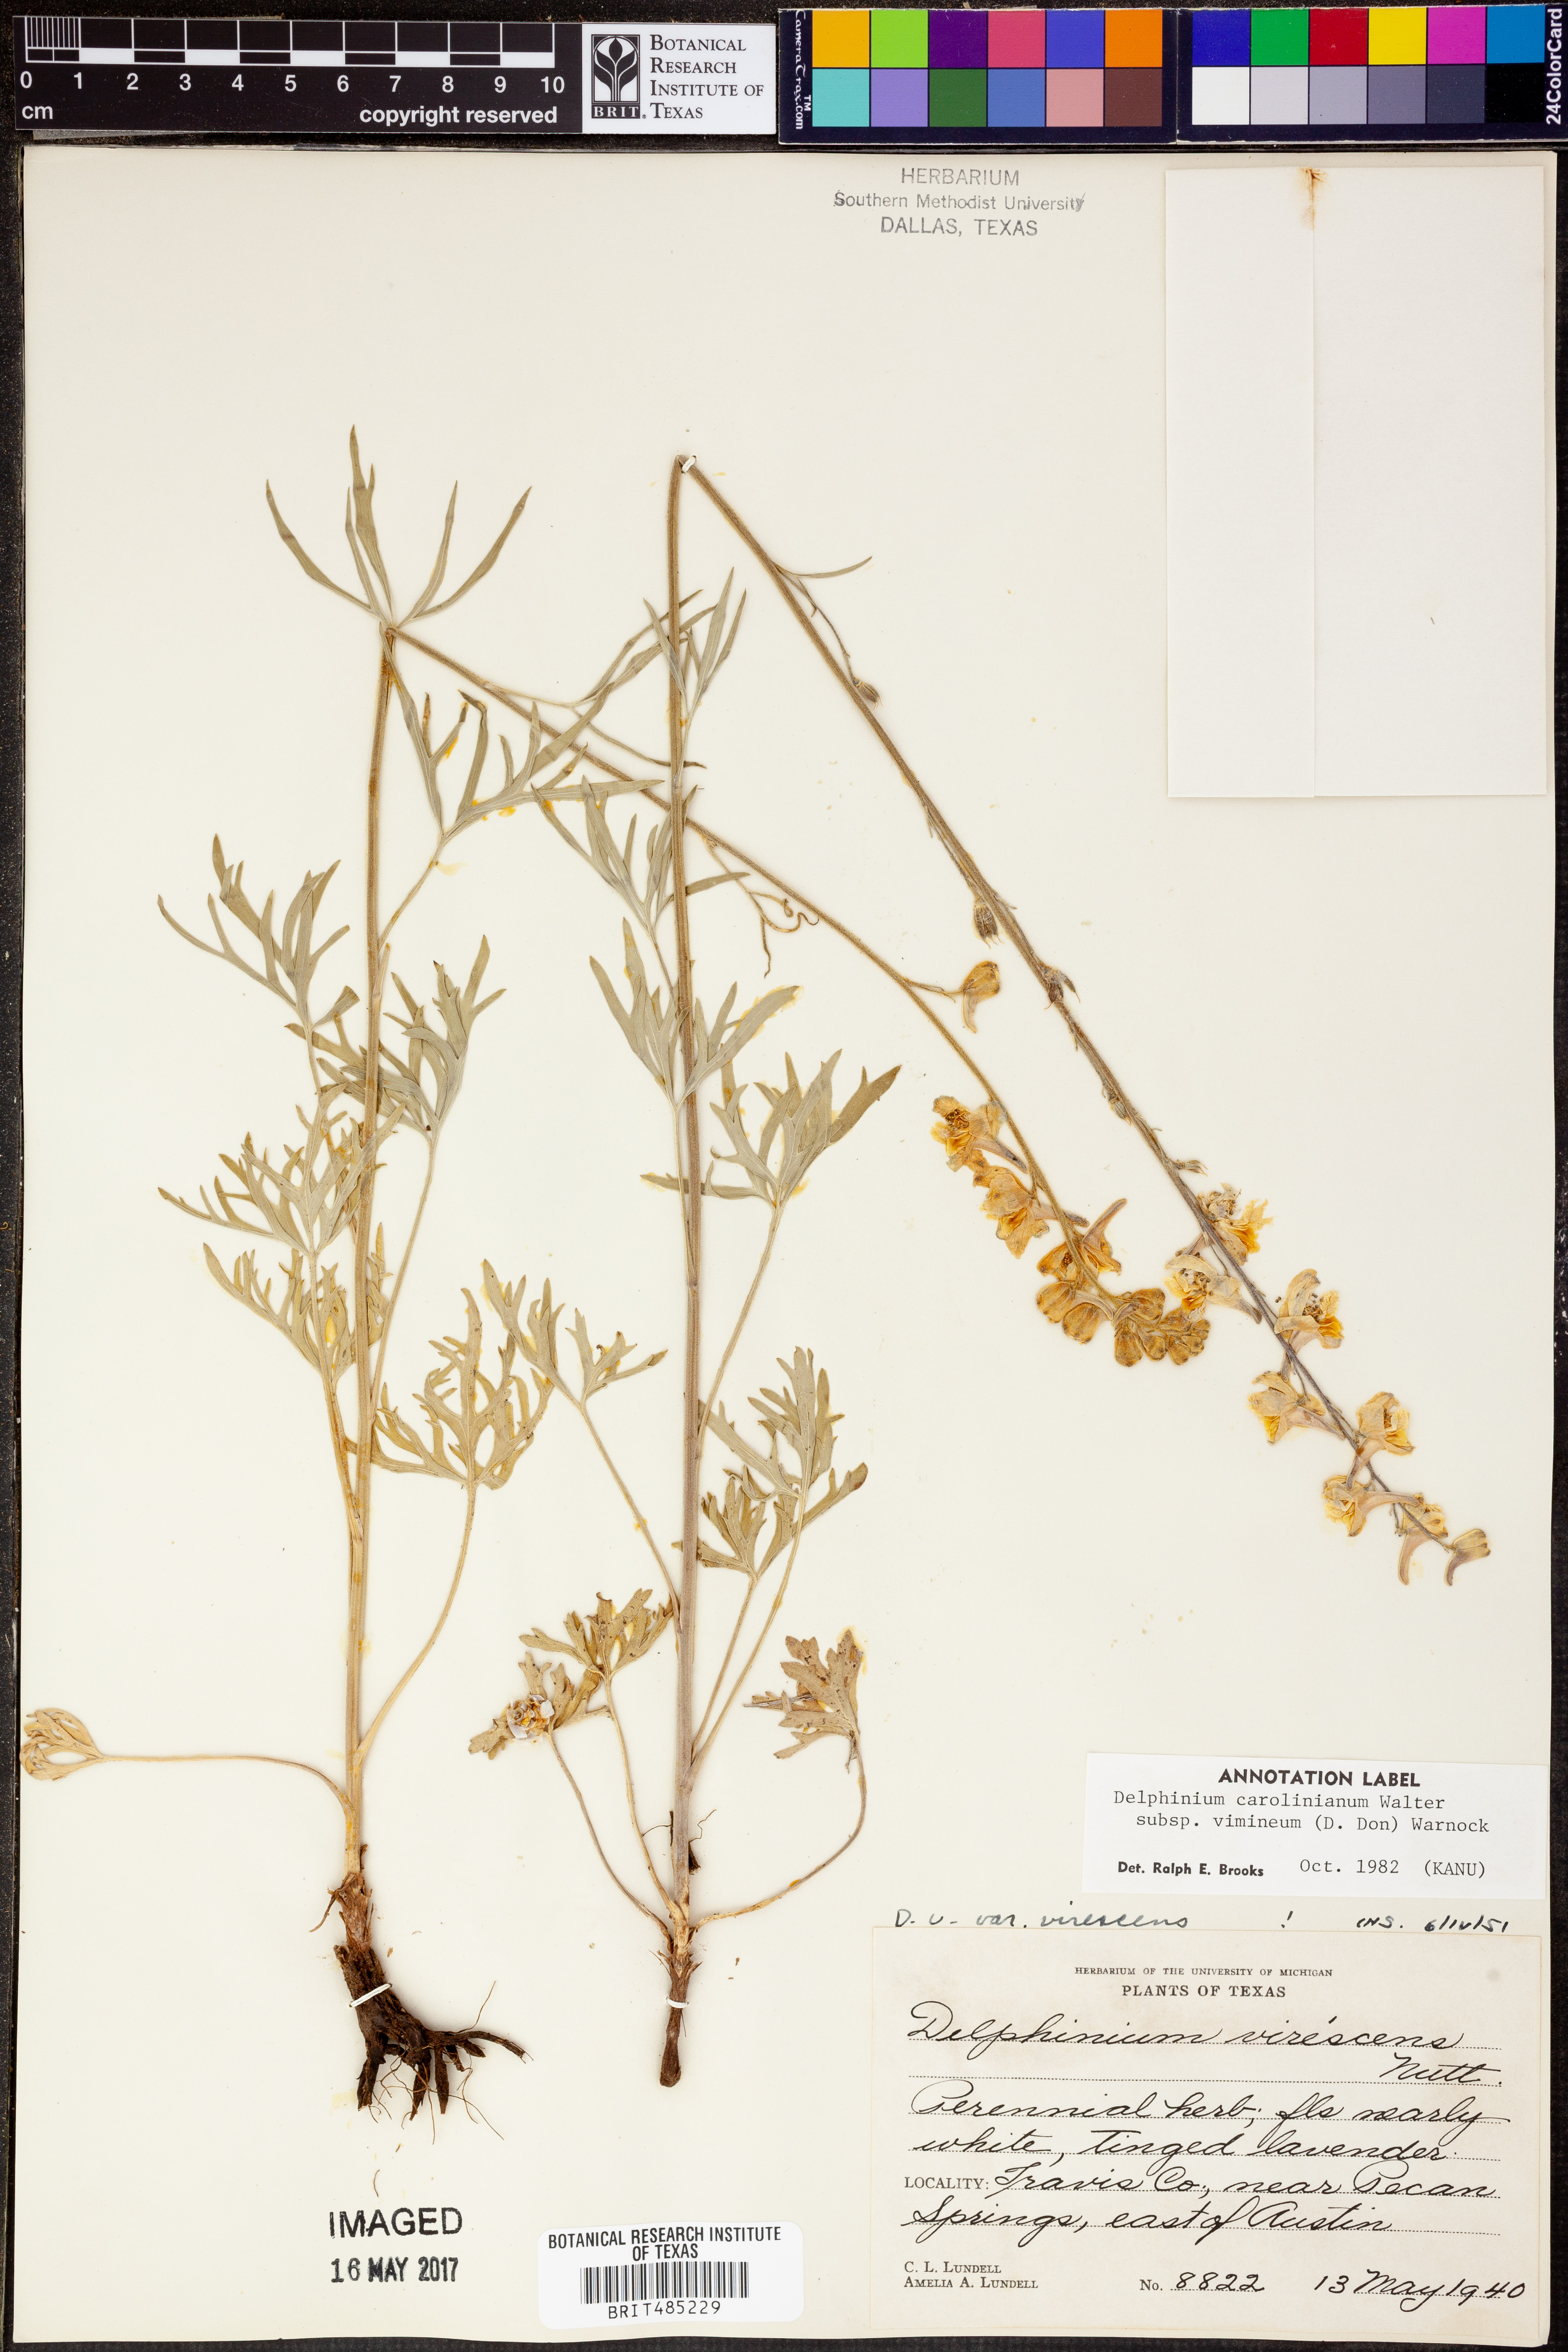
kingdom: Plantae
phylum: Tracheophyta
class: Magnoliopsida
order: Ranunculales
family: Ranunculaceae
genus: Delphinium
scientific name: Delphinium carolinianum
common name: Carolina larkspur
